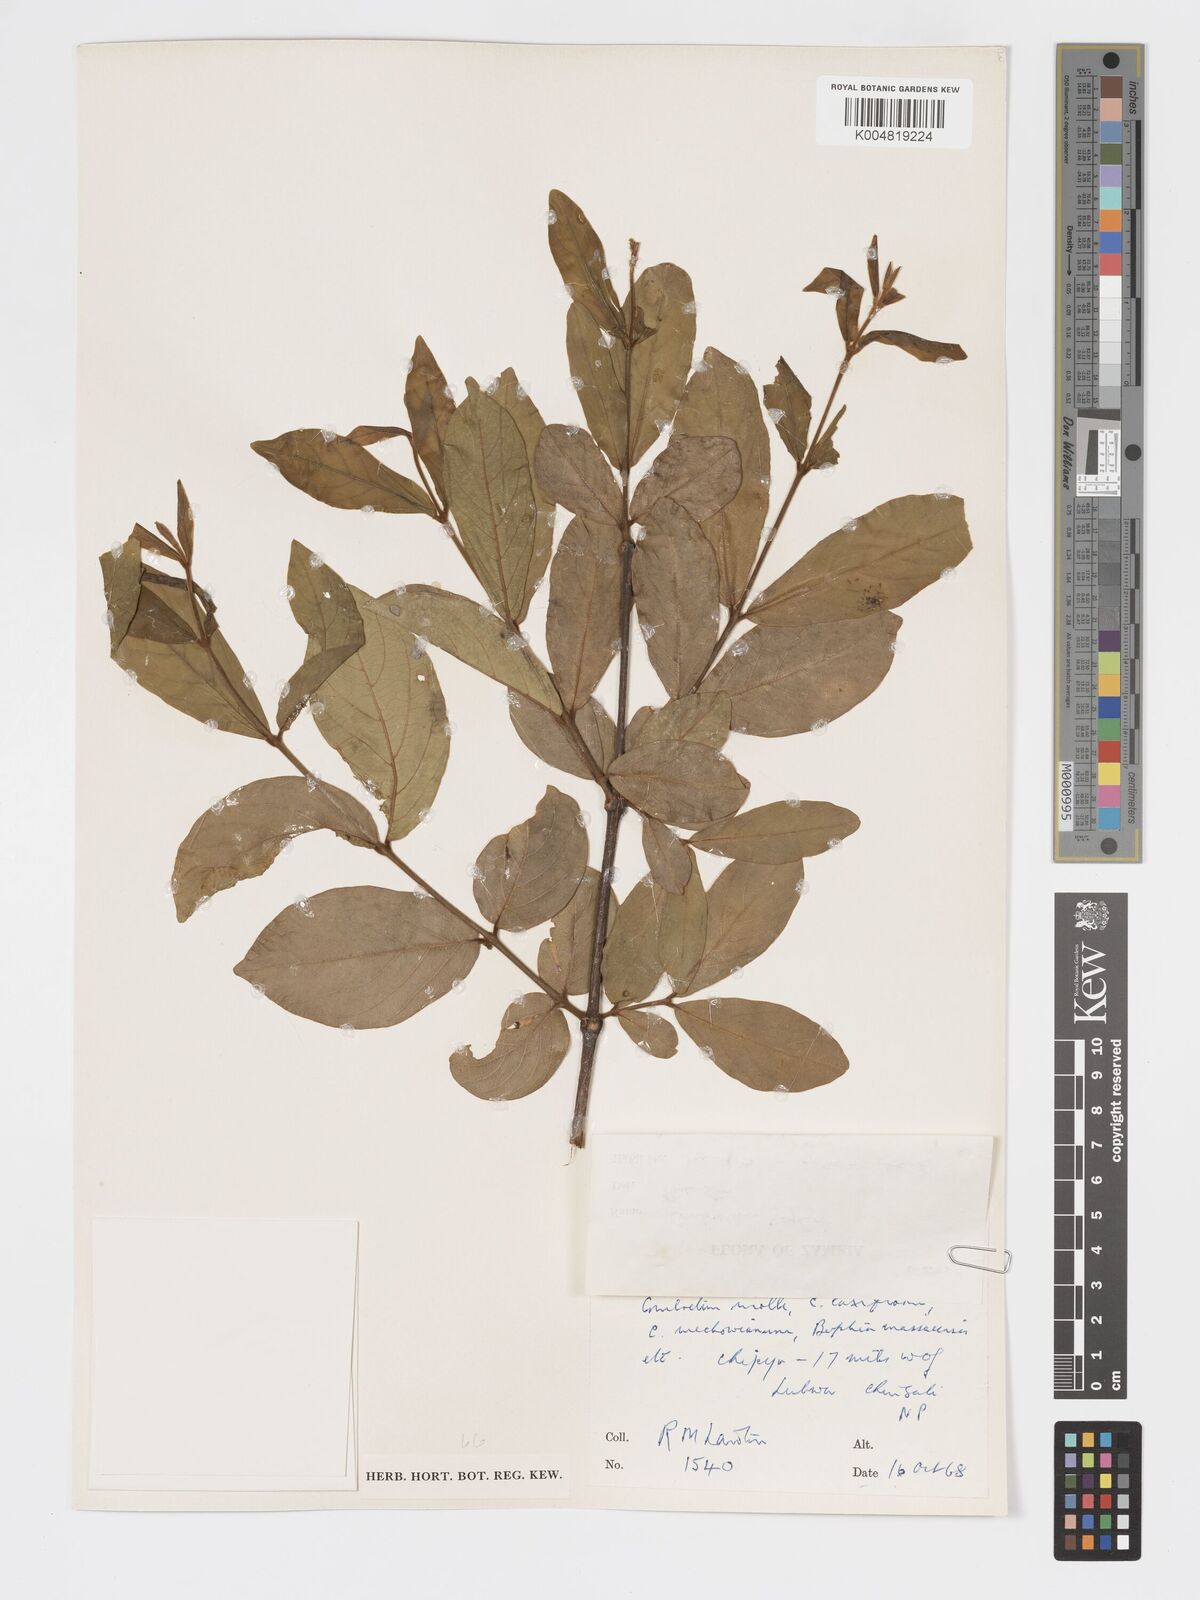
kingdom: Plantae
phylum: Tracheophyta
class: Magnoliopsida
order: Myrtales
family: Combretaceae
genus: Combretum
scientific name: Combretum zeyheri
